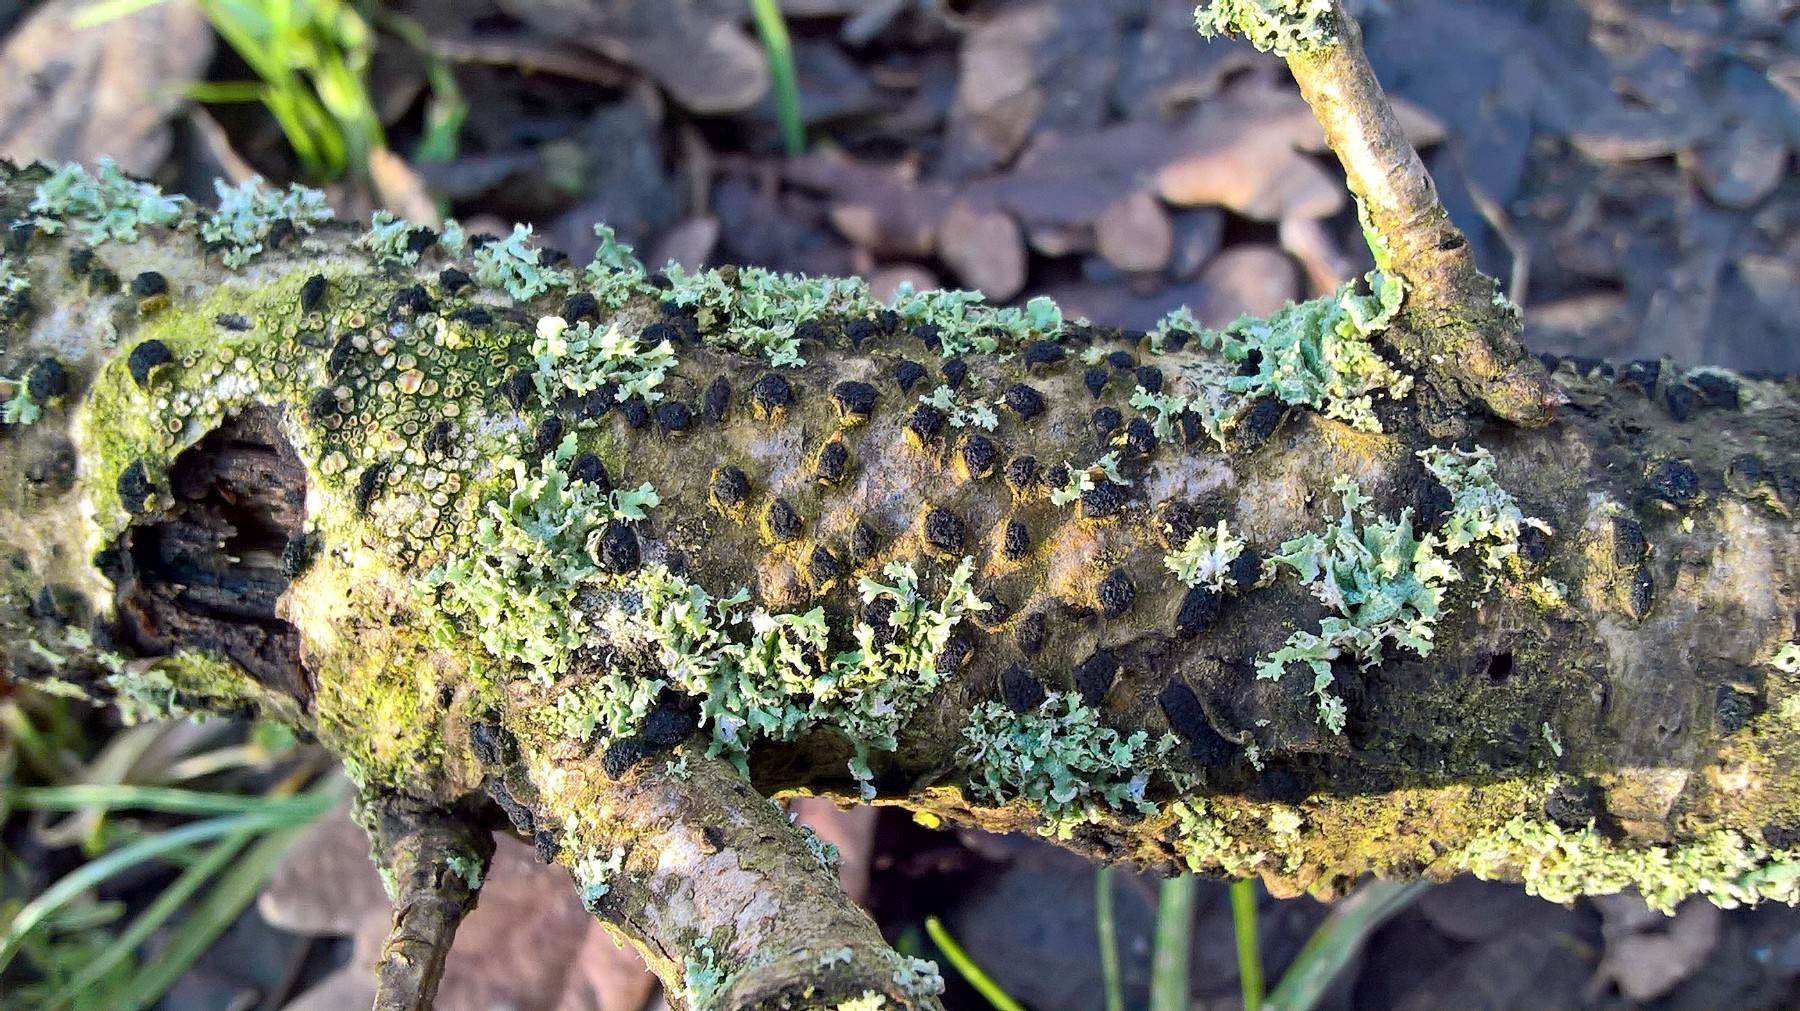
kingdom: Fungi
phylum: Ascomycota
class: Sordariomycetes
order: Xylariales
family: Diatrypaceae
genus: Diatrypella
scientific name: Diatrypella quercina
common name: ege-kulskorpe
